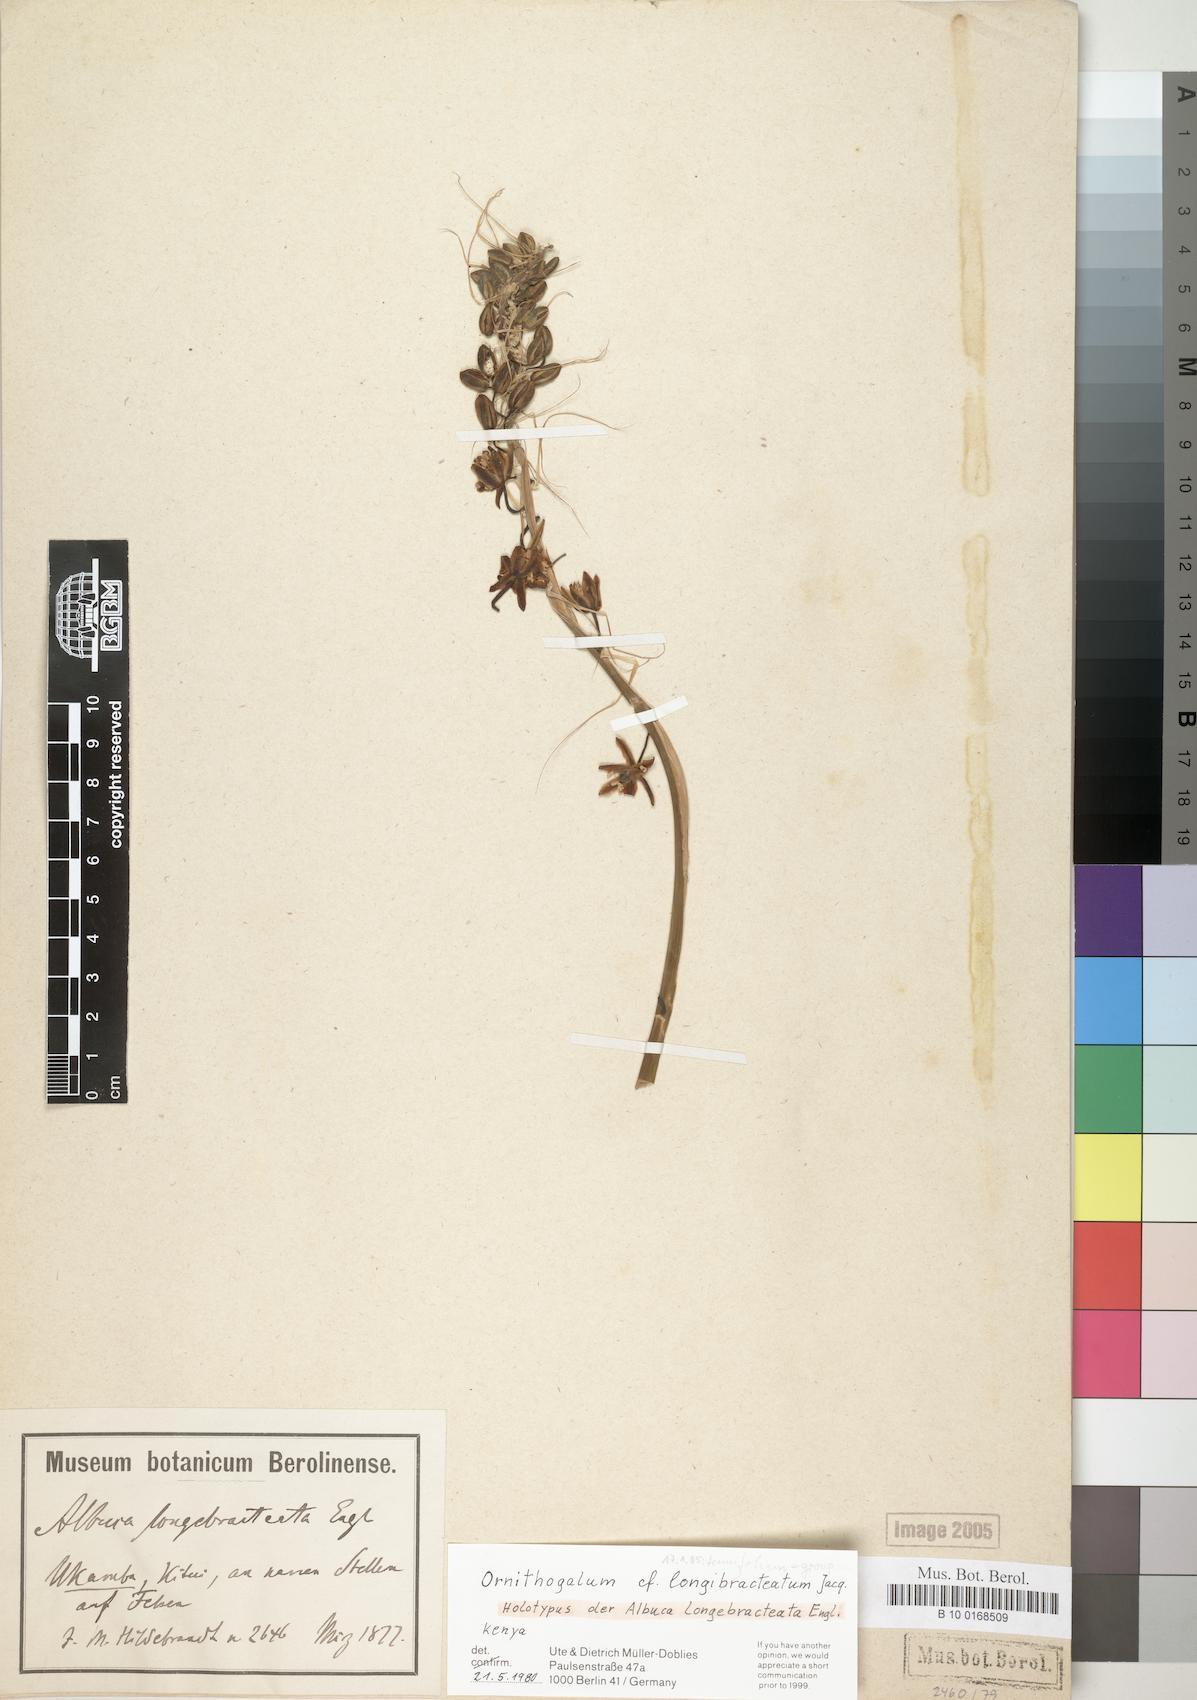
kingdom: Plantae
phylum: Tracheophyta
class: Liliopsida
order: Asparagales
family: Asparagaceae
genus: Albuca
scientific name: Albuca bracteata
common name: Sea-onion
